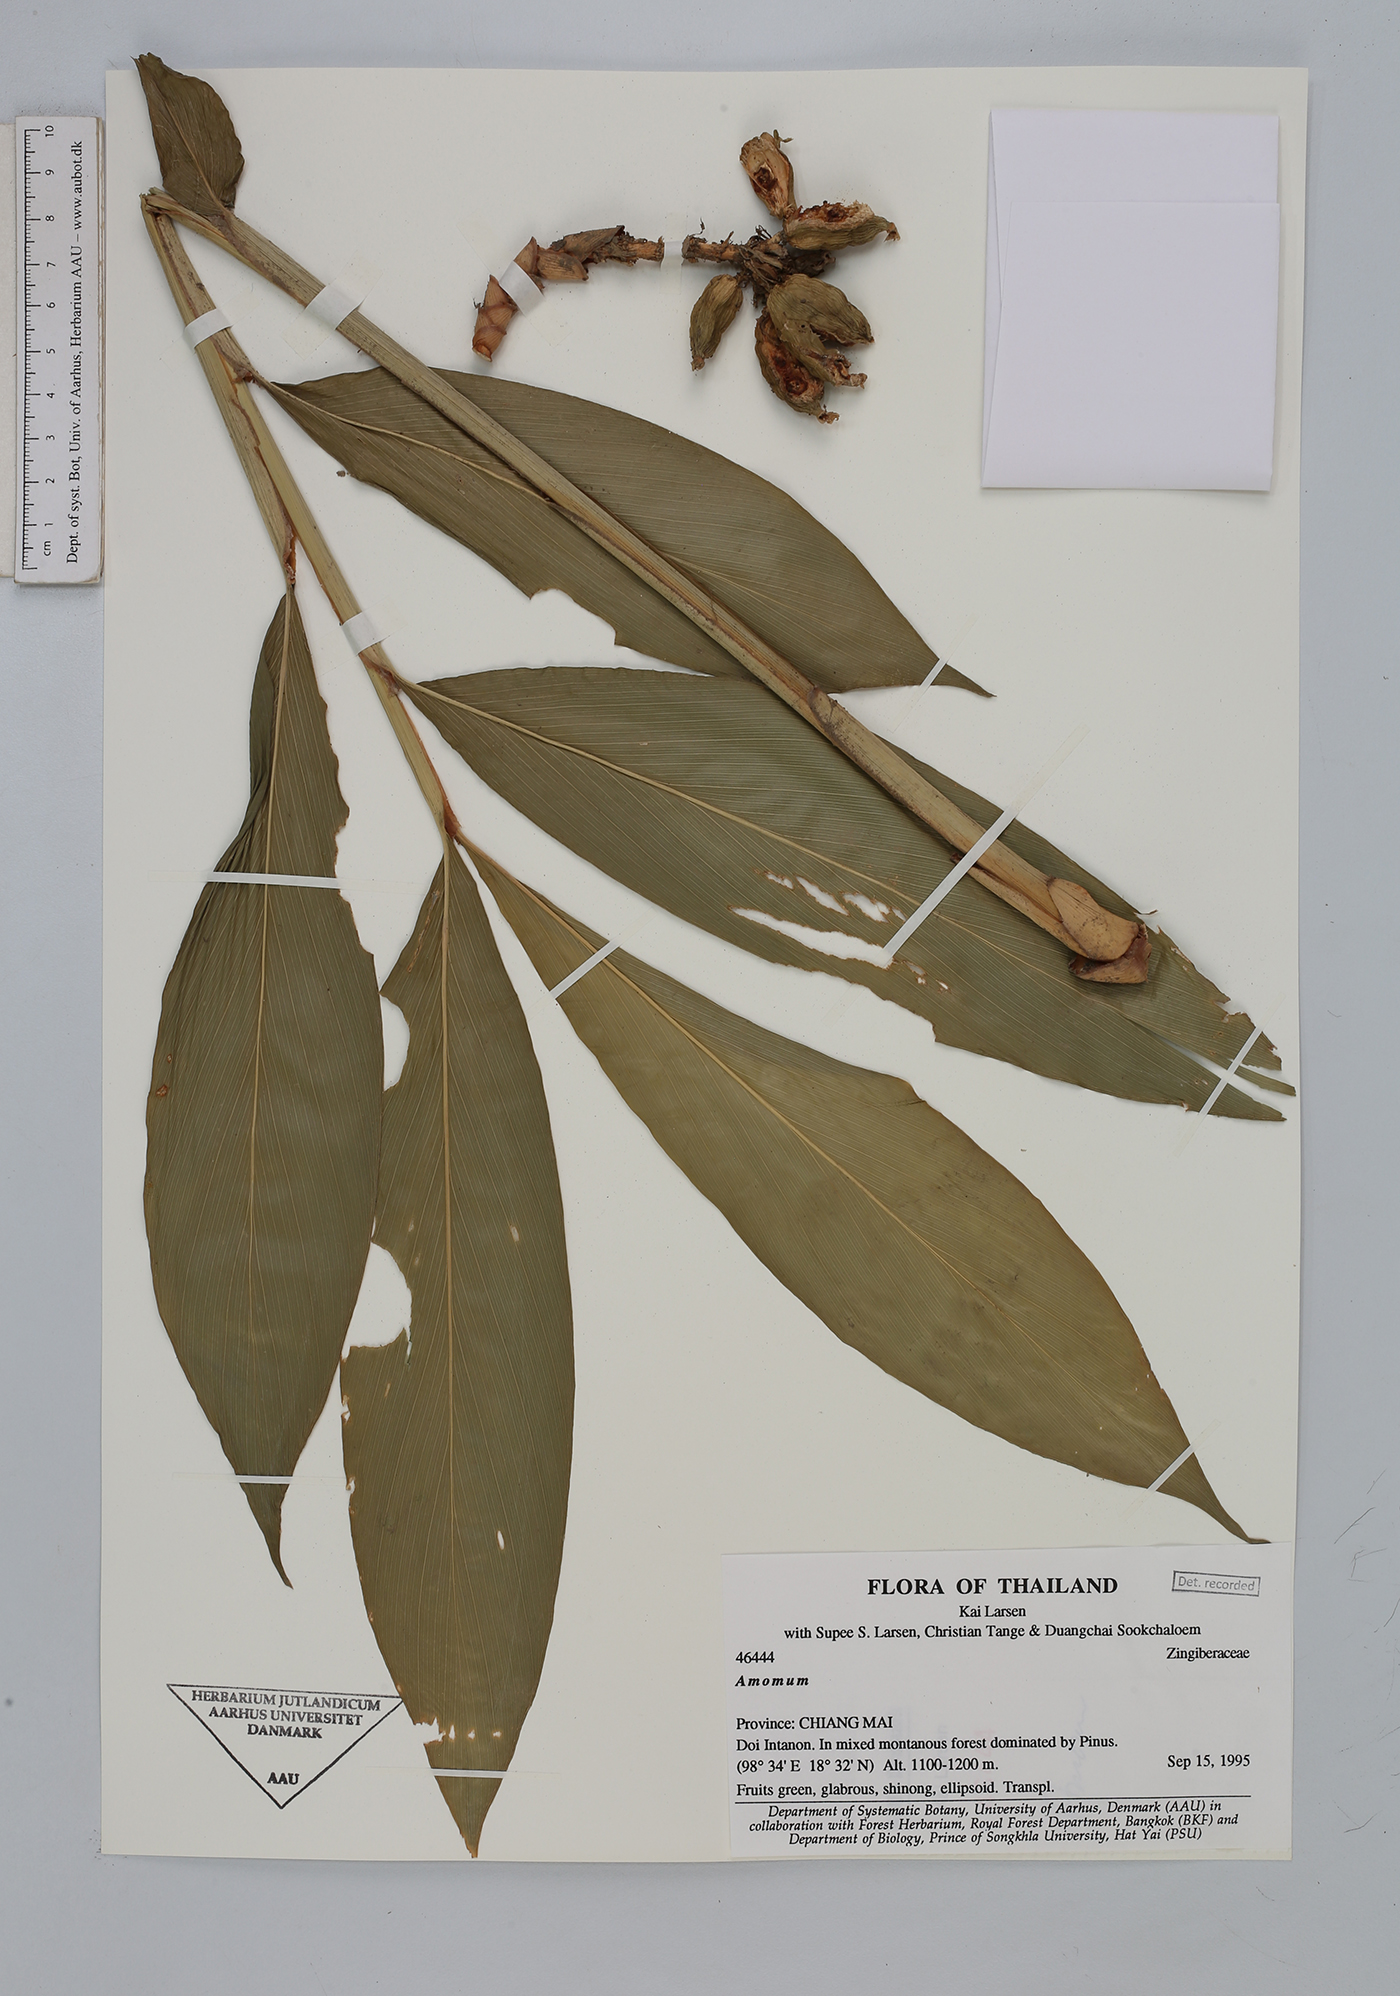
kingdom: Plantae
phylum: Tracheophyta
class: Liliopsida
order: Zingiberales
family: Zingiberaceae
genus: Amomum
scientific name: Amomum
